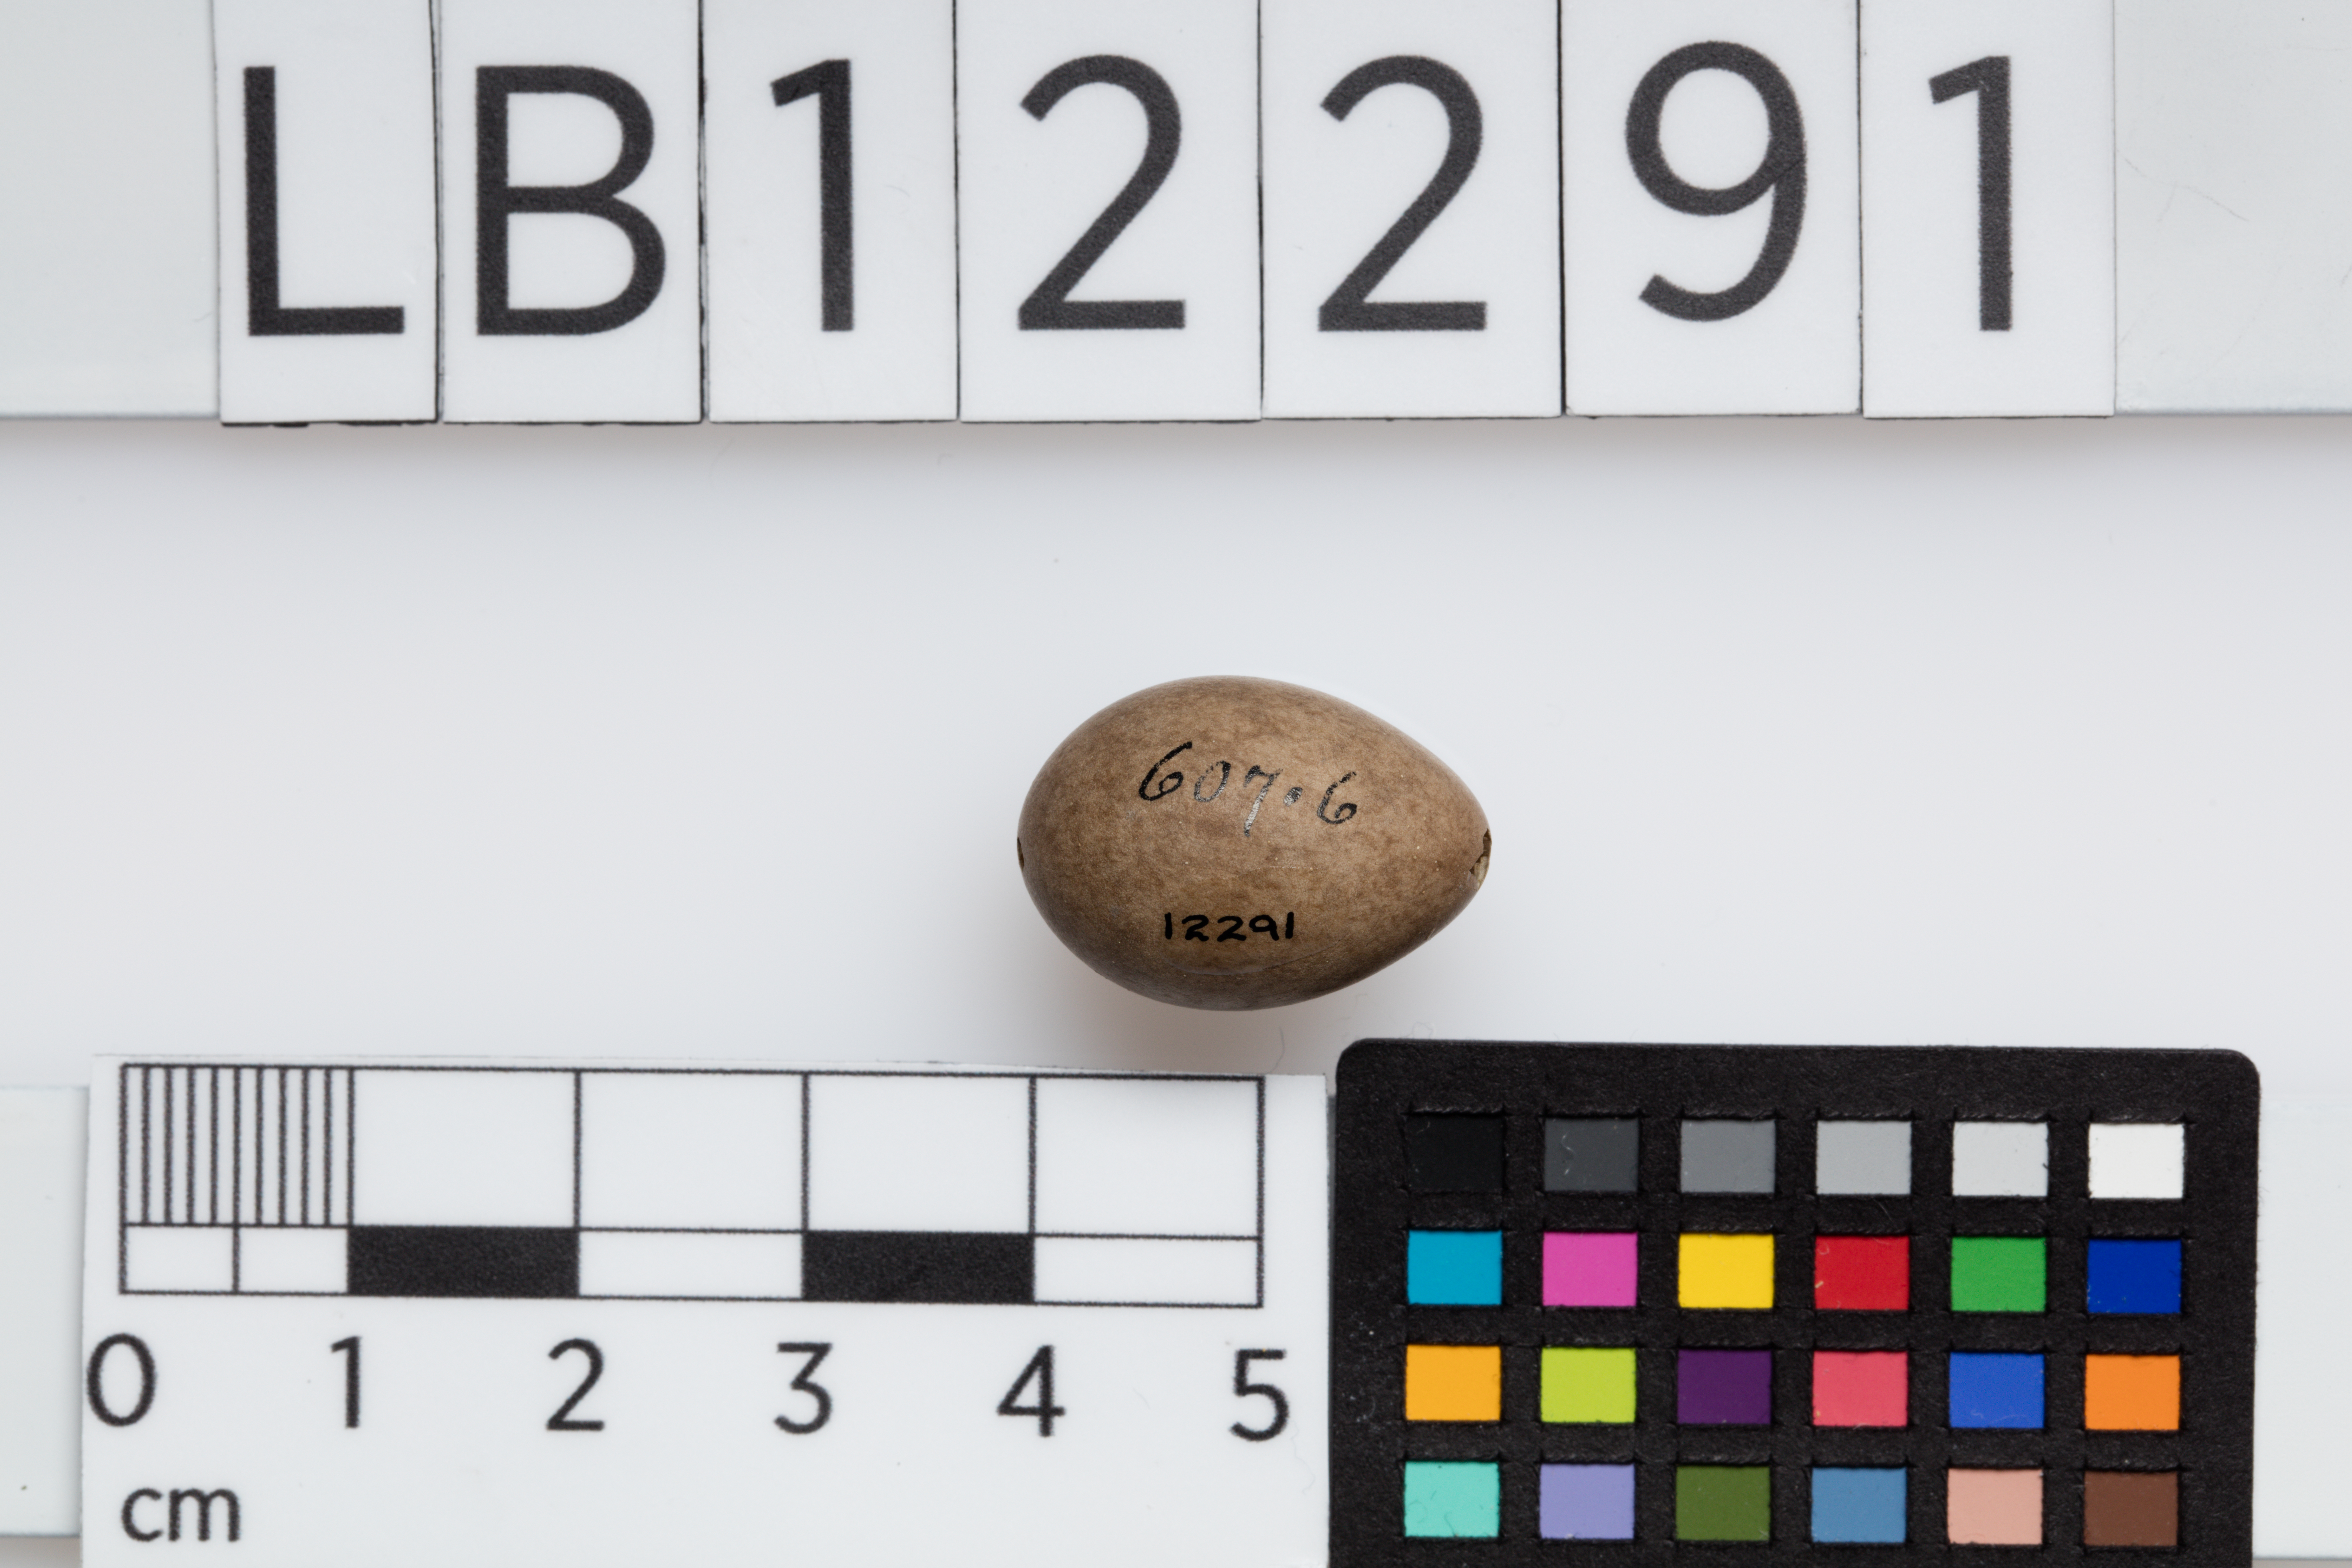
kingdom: Animalia
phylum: Chordata
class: Aves
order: Passeriformes
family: Motacillidae
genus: Anthus
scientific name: Anthus trivialis
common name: Tree pipit
